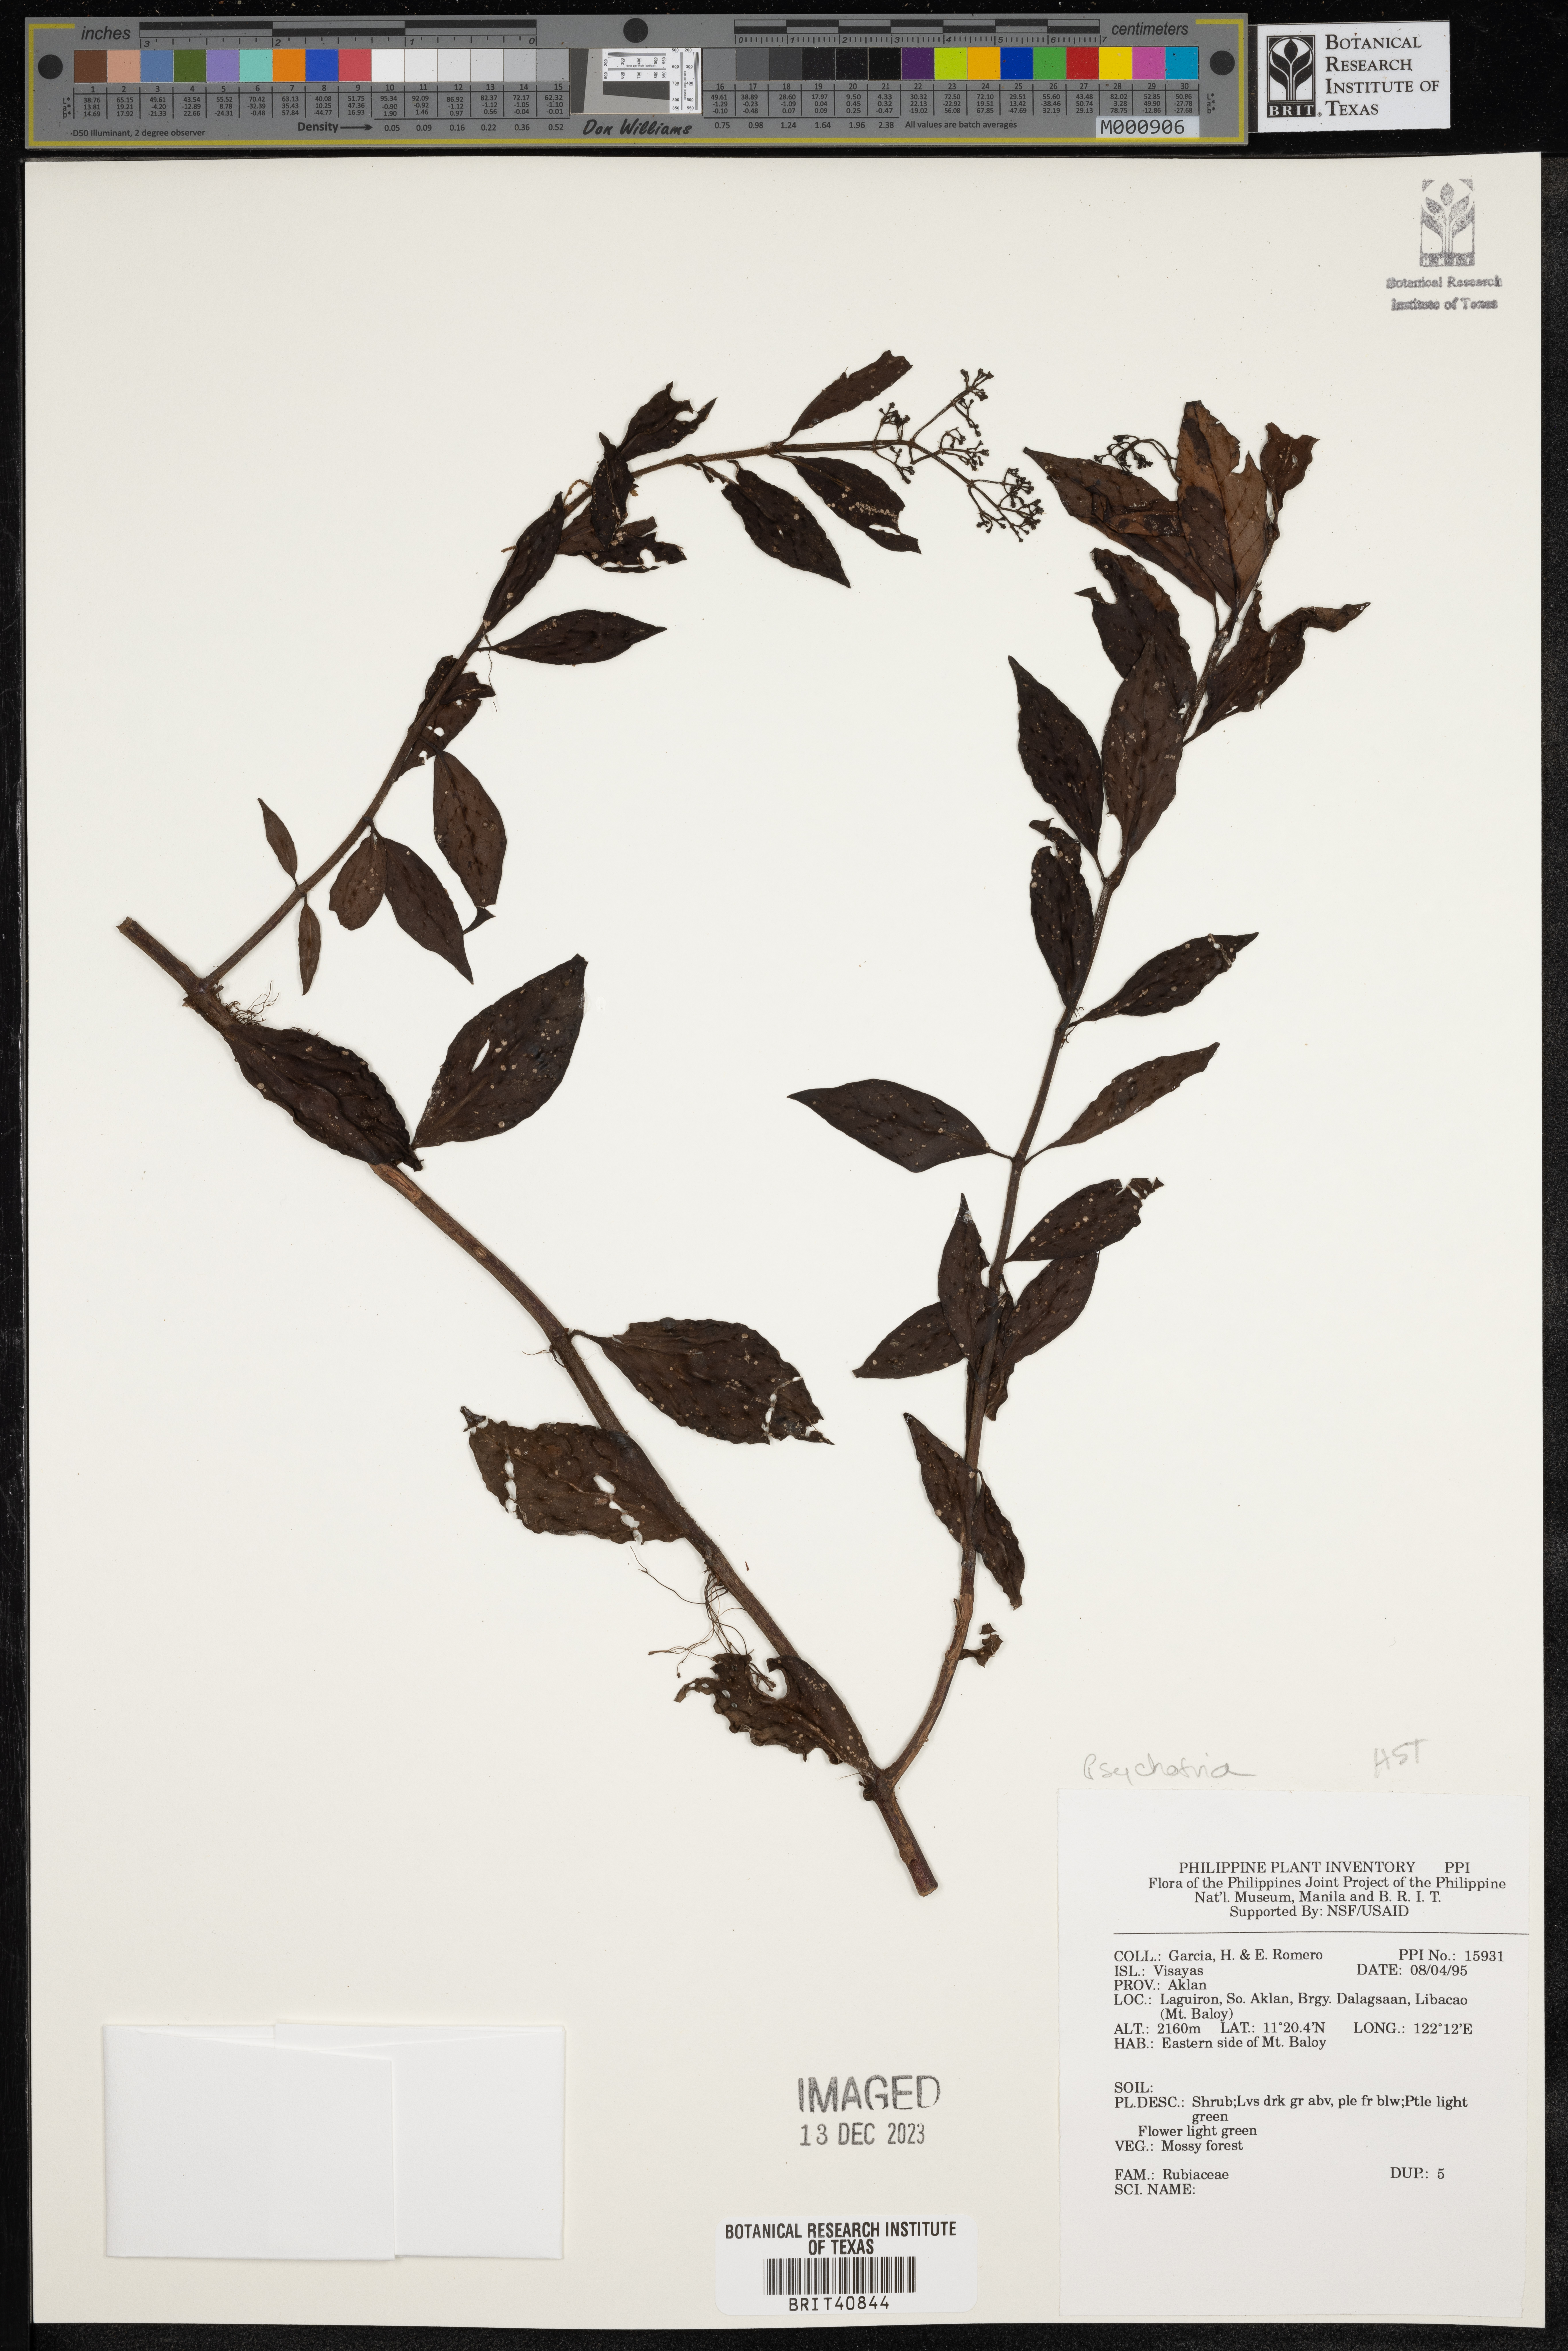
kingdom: Plantae
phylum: Tracheophyta
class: Magnoliopsida
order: Gentianales
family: Rubiaceae
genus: Psychotria
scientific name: Psychotria
